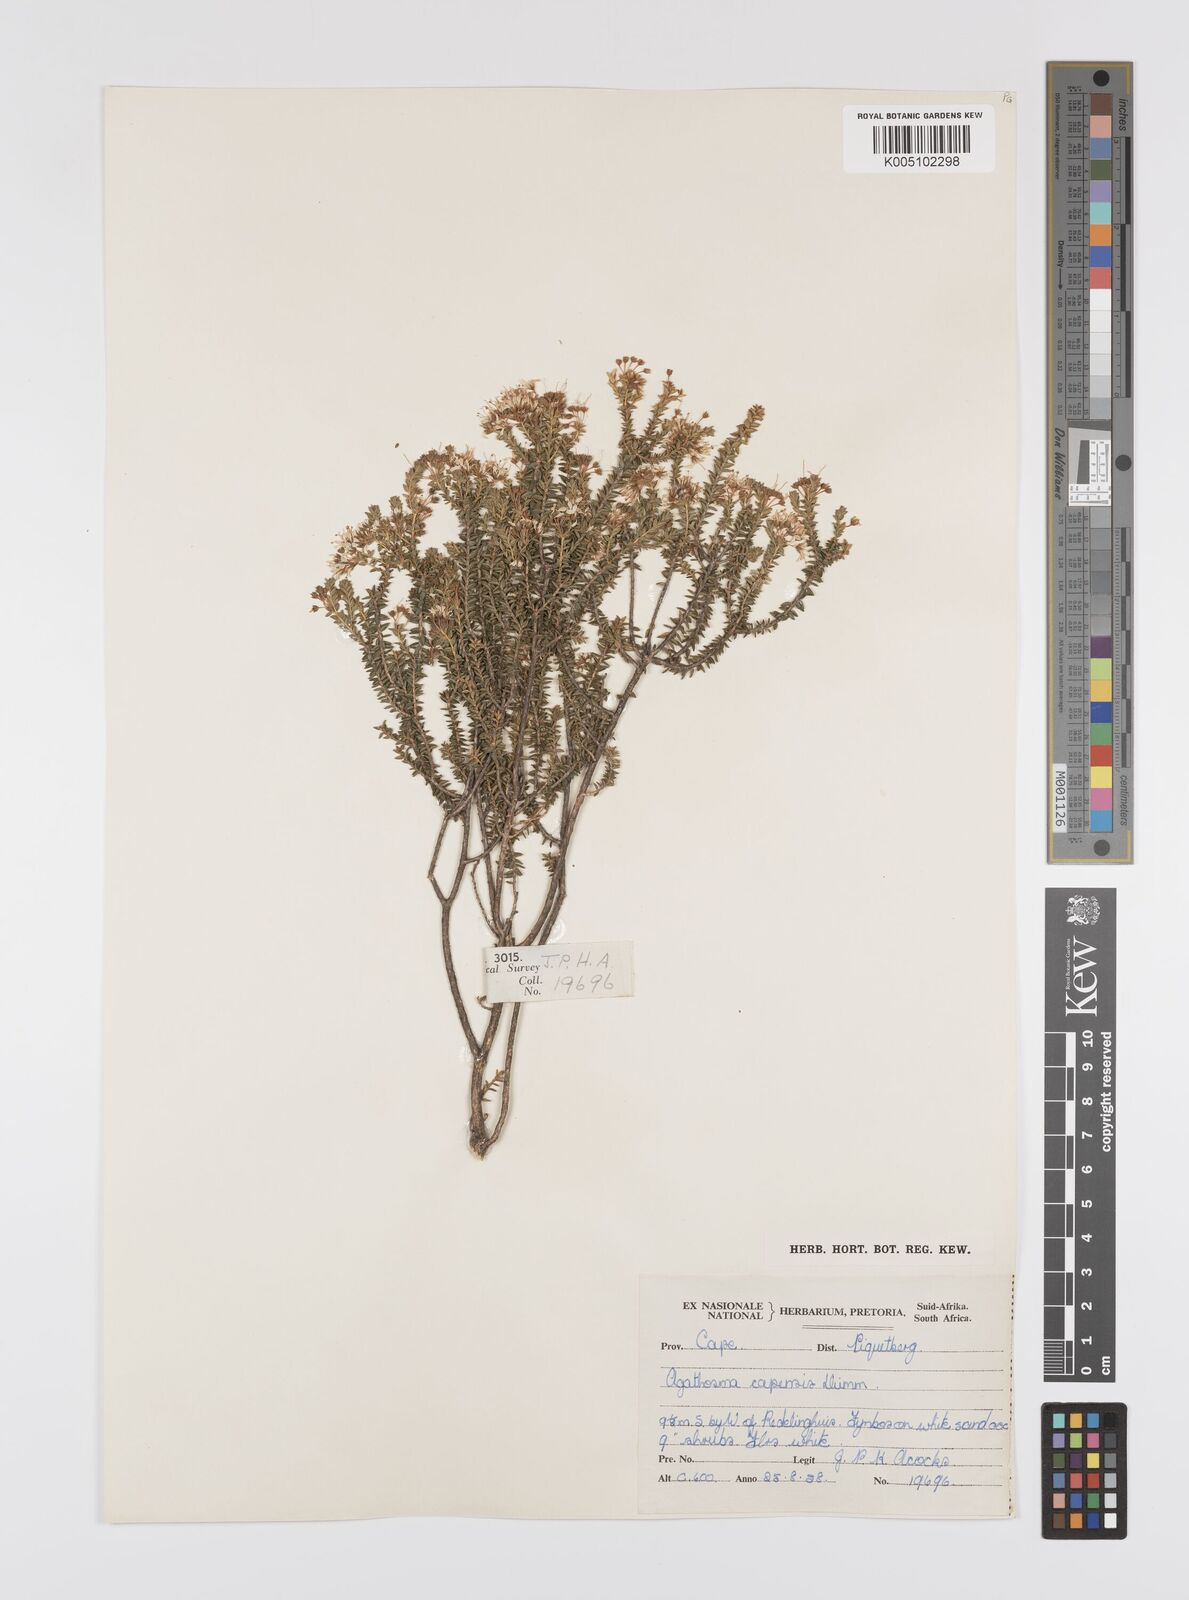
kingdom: Plantae
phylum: Tracheophyta
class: Magnoliopsida
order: Sapindales
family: Rutaceae
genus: Agathosma
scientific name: Agathosma capensis
